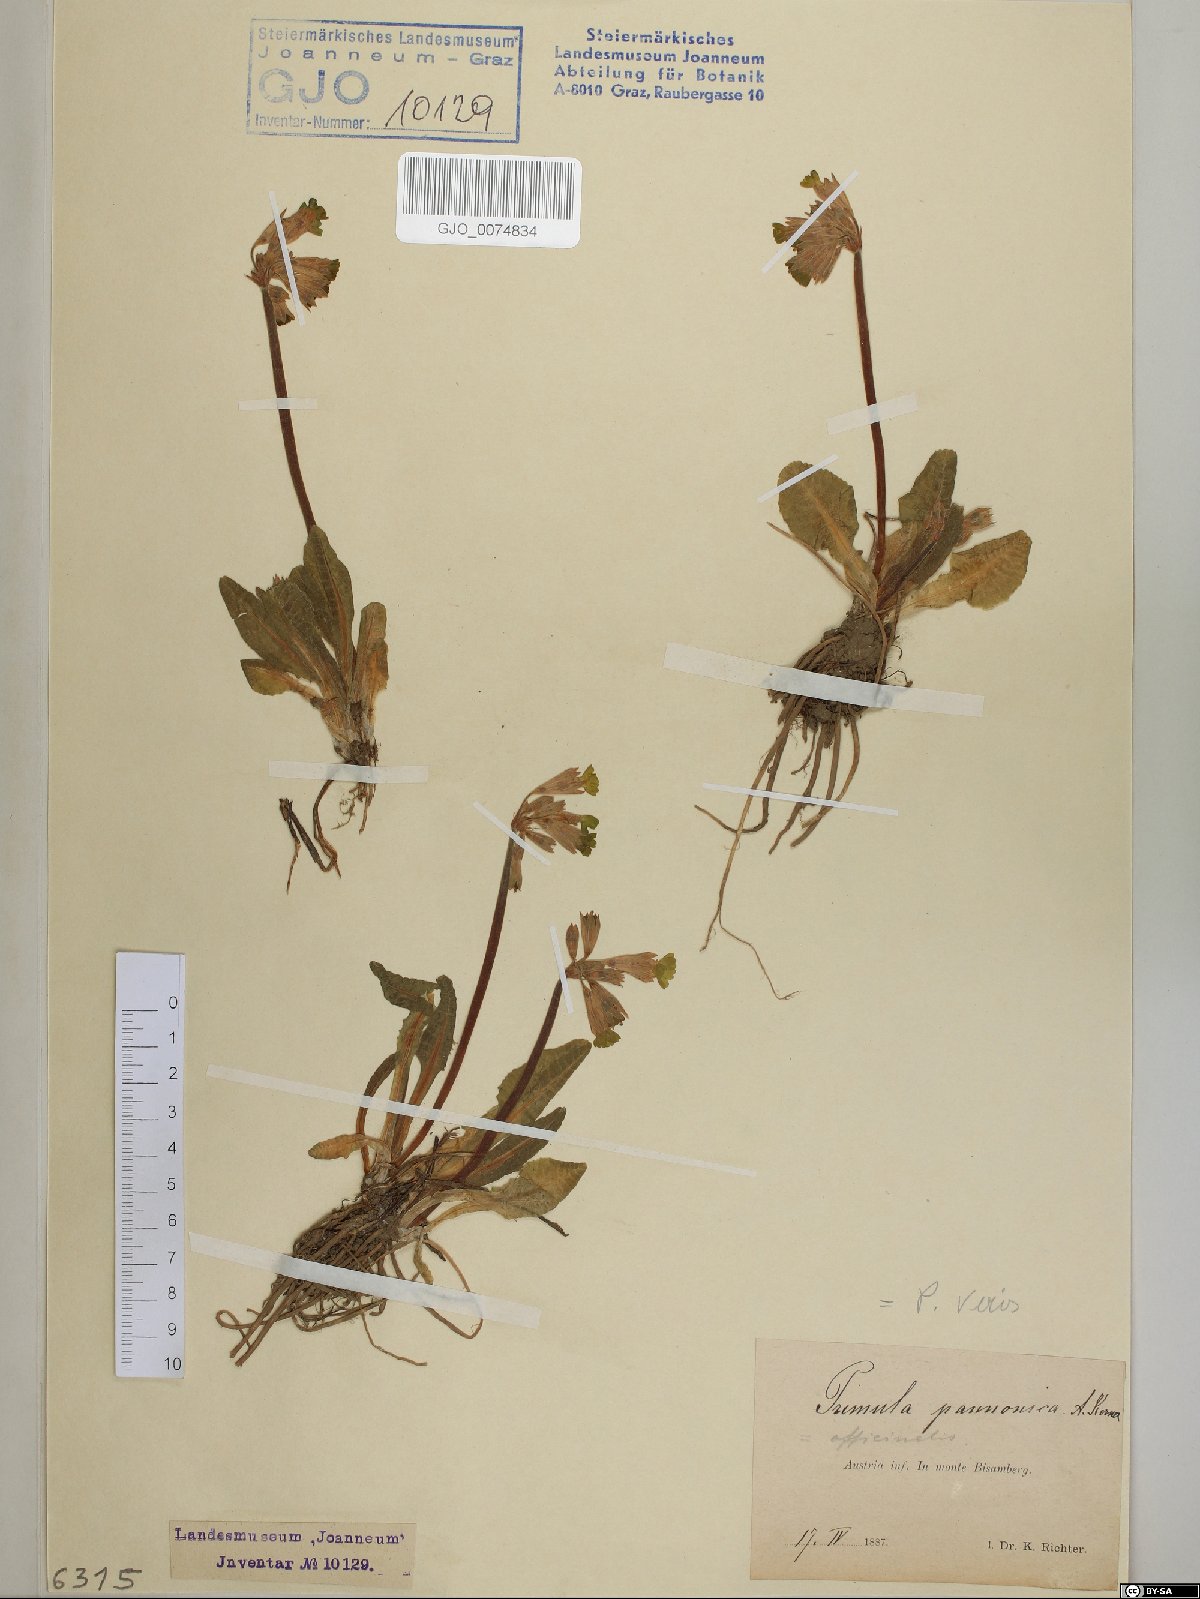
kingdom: Plantae
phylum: Tracheophyta
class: Magnoliopsida
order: Ericales
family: Primulaceae
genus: Primula
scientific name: Primula veris
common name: Cowslip
